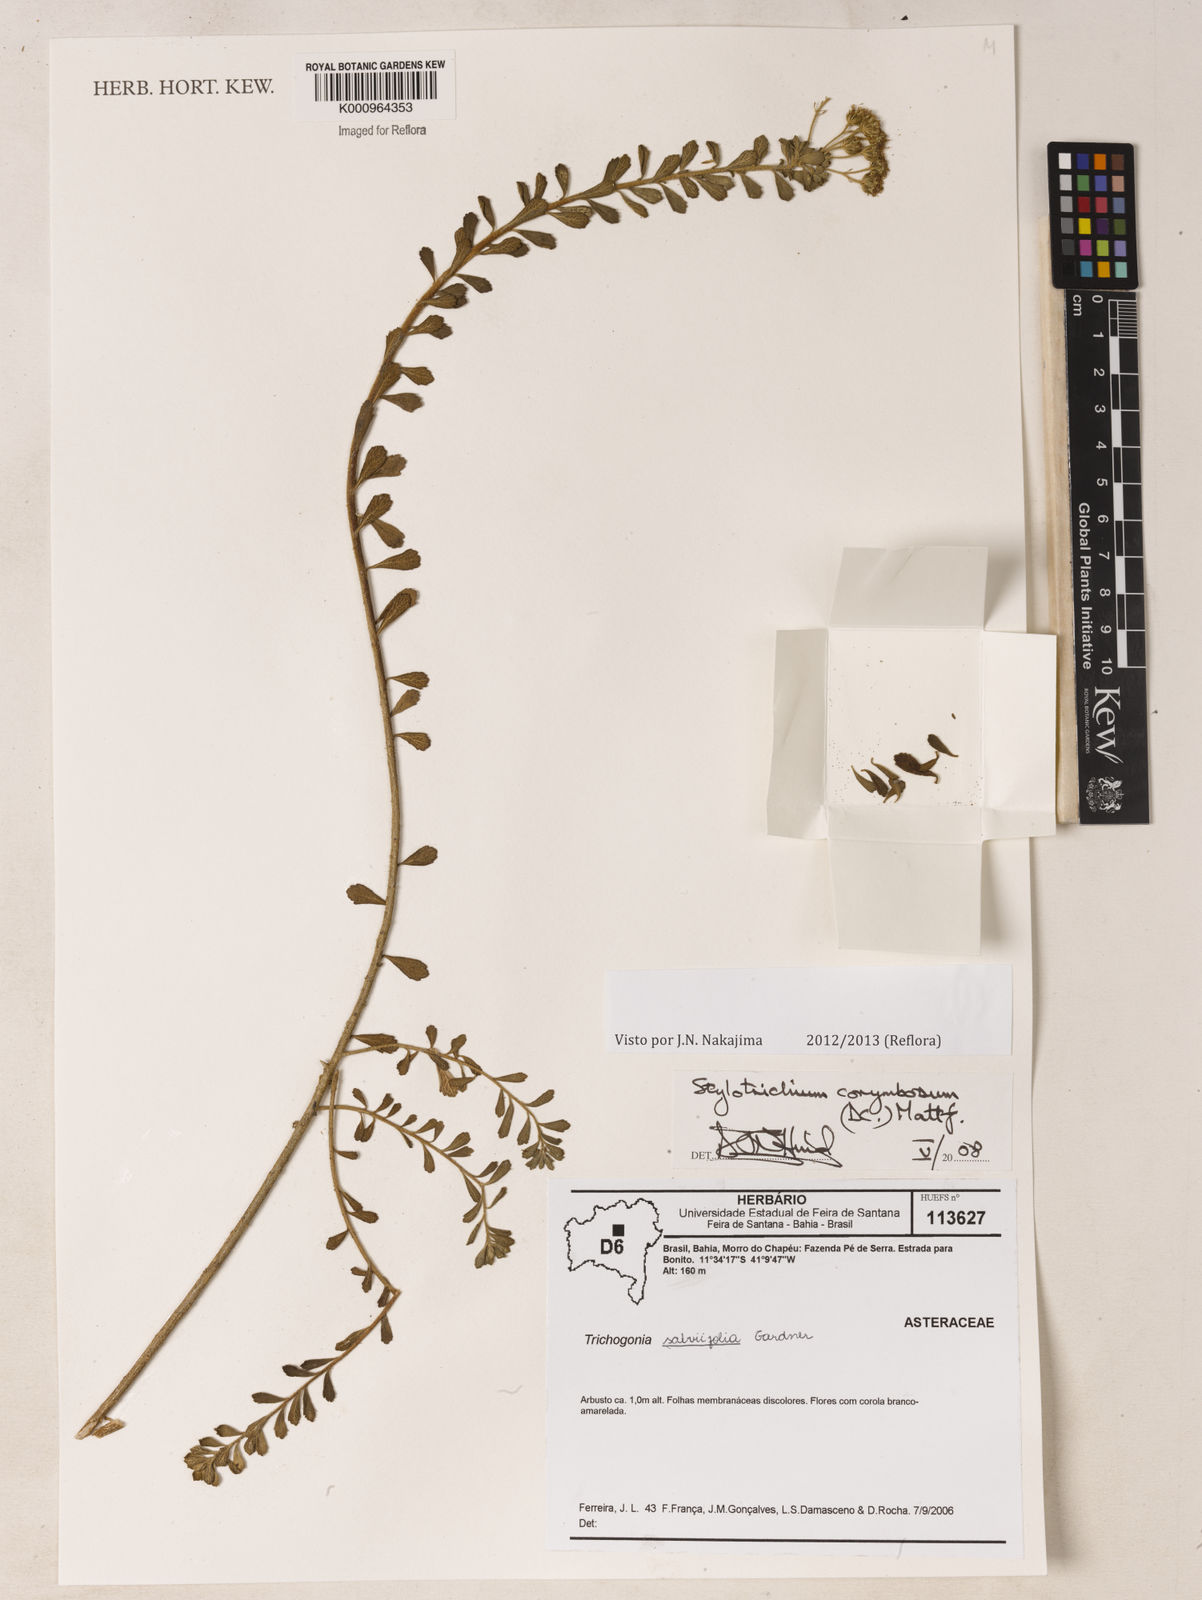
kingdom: Plantae
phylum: Tracheophyta
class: Magnoliopsida
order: Asterales
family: Asteraceae
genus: Stylotrichium
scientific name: Stylotrichium
